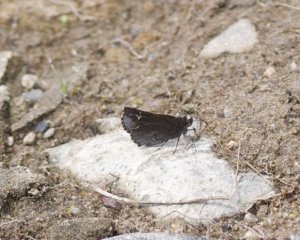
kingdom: Animalia
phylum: Arthropoda
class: Insecta
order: Lepidoptera
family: Hesperiidae
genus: Mastor
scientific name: Mastor vialis
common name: Common Roadside-Skipper
